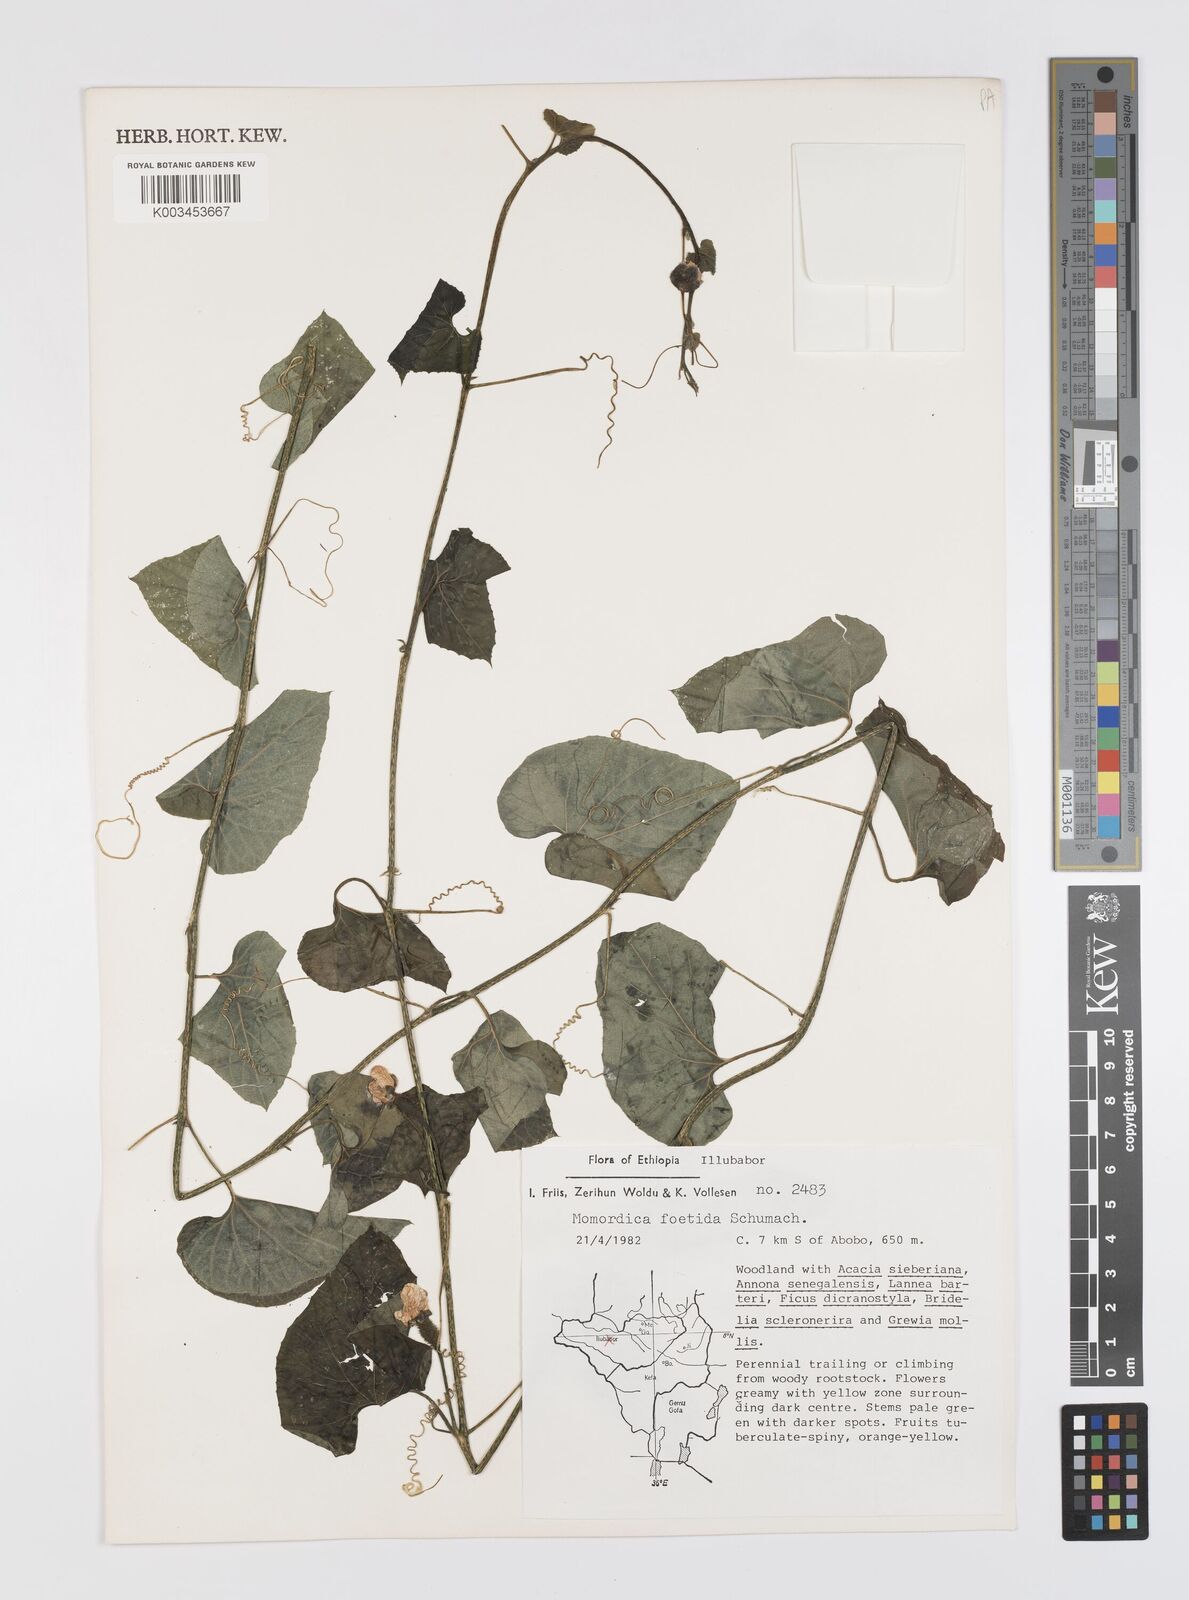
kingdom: Plantae
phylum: Tracheophyta
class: Magnoliopsida
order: Cucurbitales
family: Cucurbitaceae
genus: Momordica
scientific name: Momordica foetida
